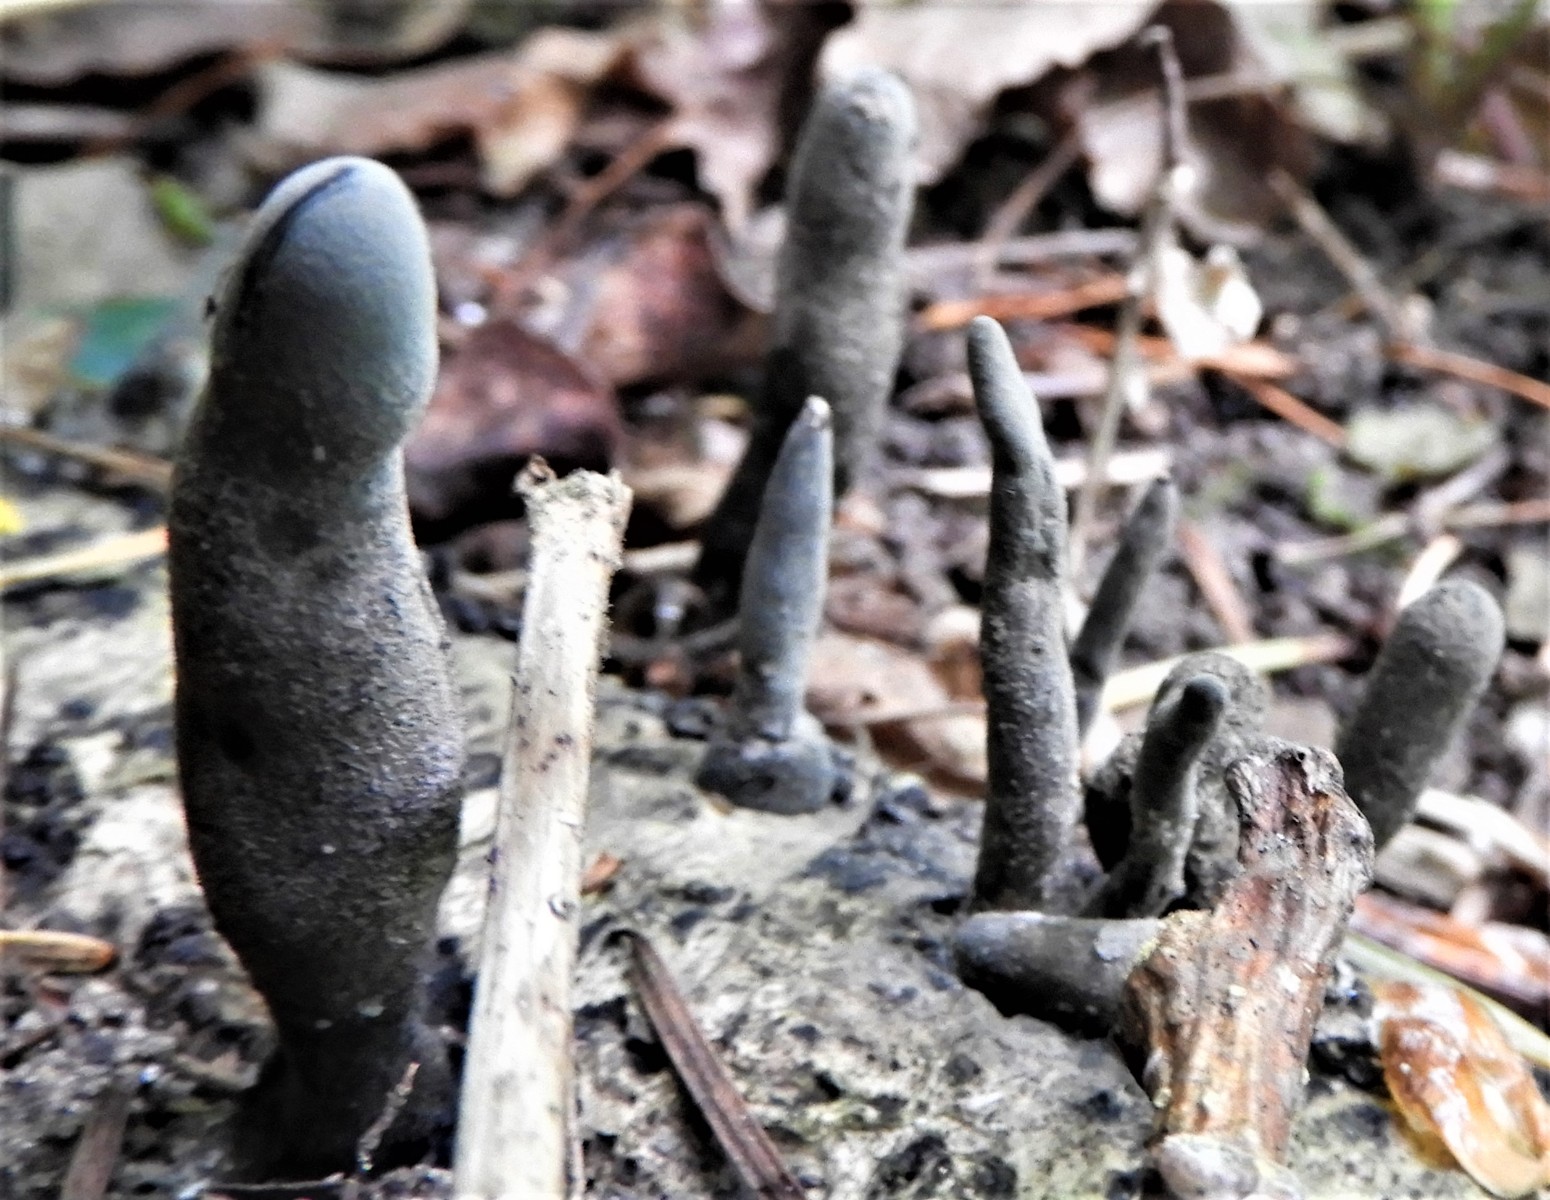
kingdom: Fungi
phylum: Ascomycota
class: Sordariomycetes
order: Xylariales
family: Xylariaceae
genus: Xylaria
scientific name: Xylaria polymorpha
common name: kølle-stødsvamp
